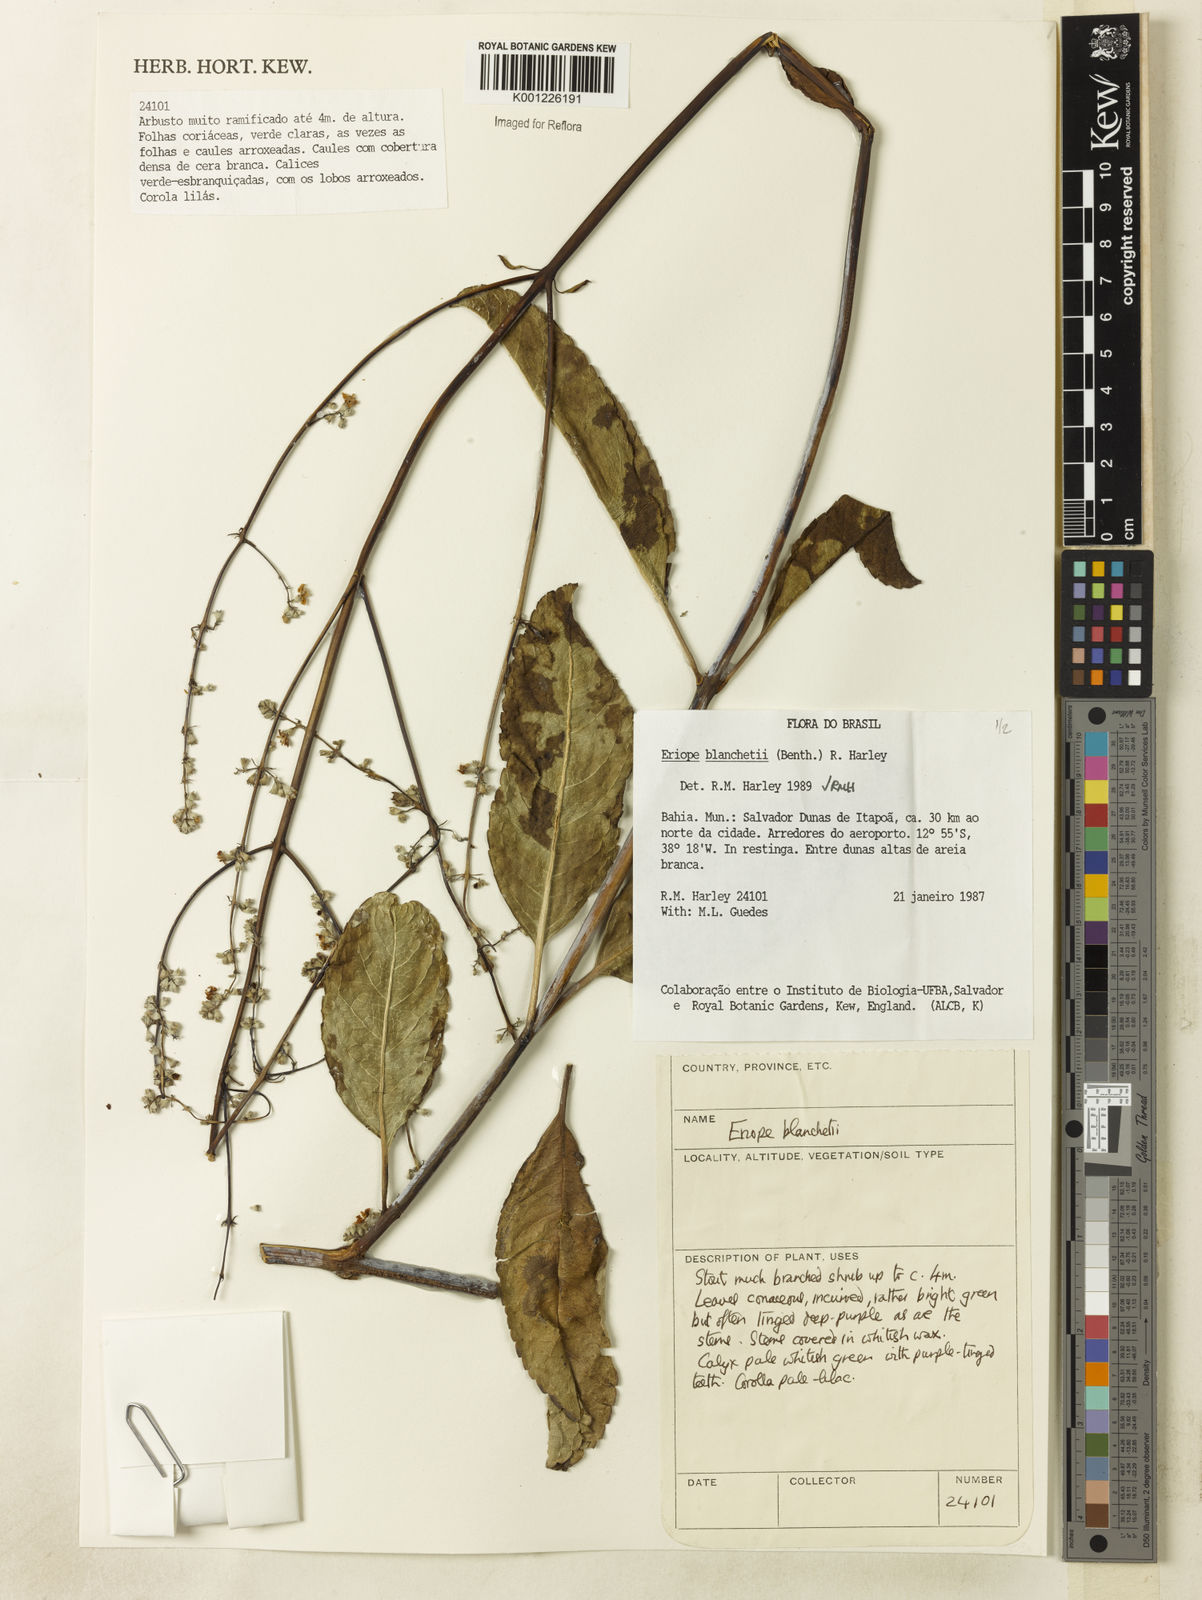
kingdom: Plantae
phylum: Tracheophyta
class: Magnoliopsida
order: Lamiales
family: Lamiaceae
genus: Eriope
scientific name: Eriope blanchetii
